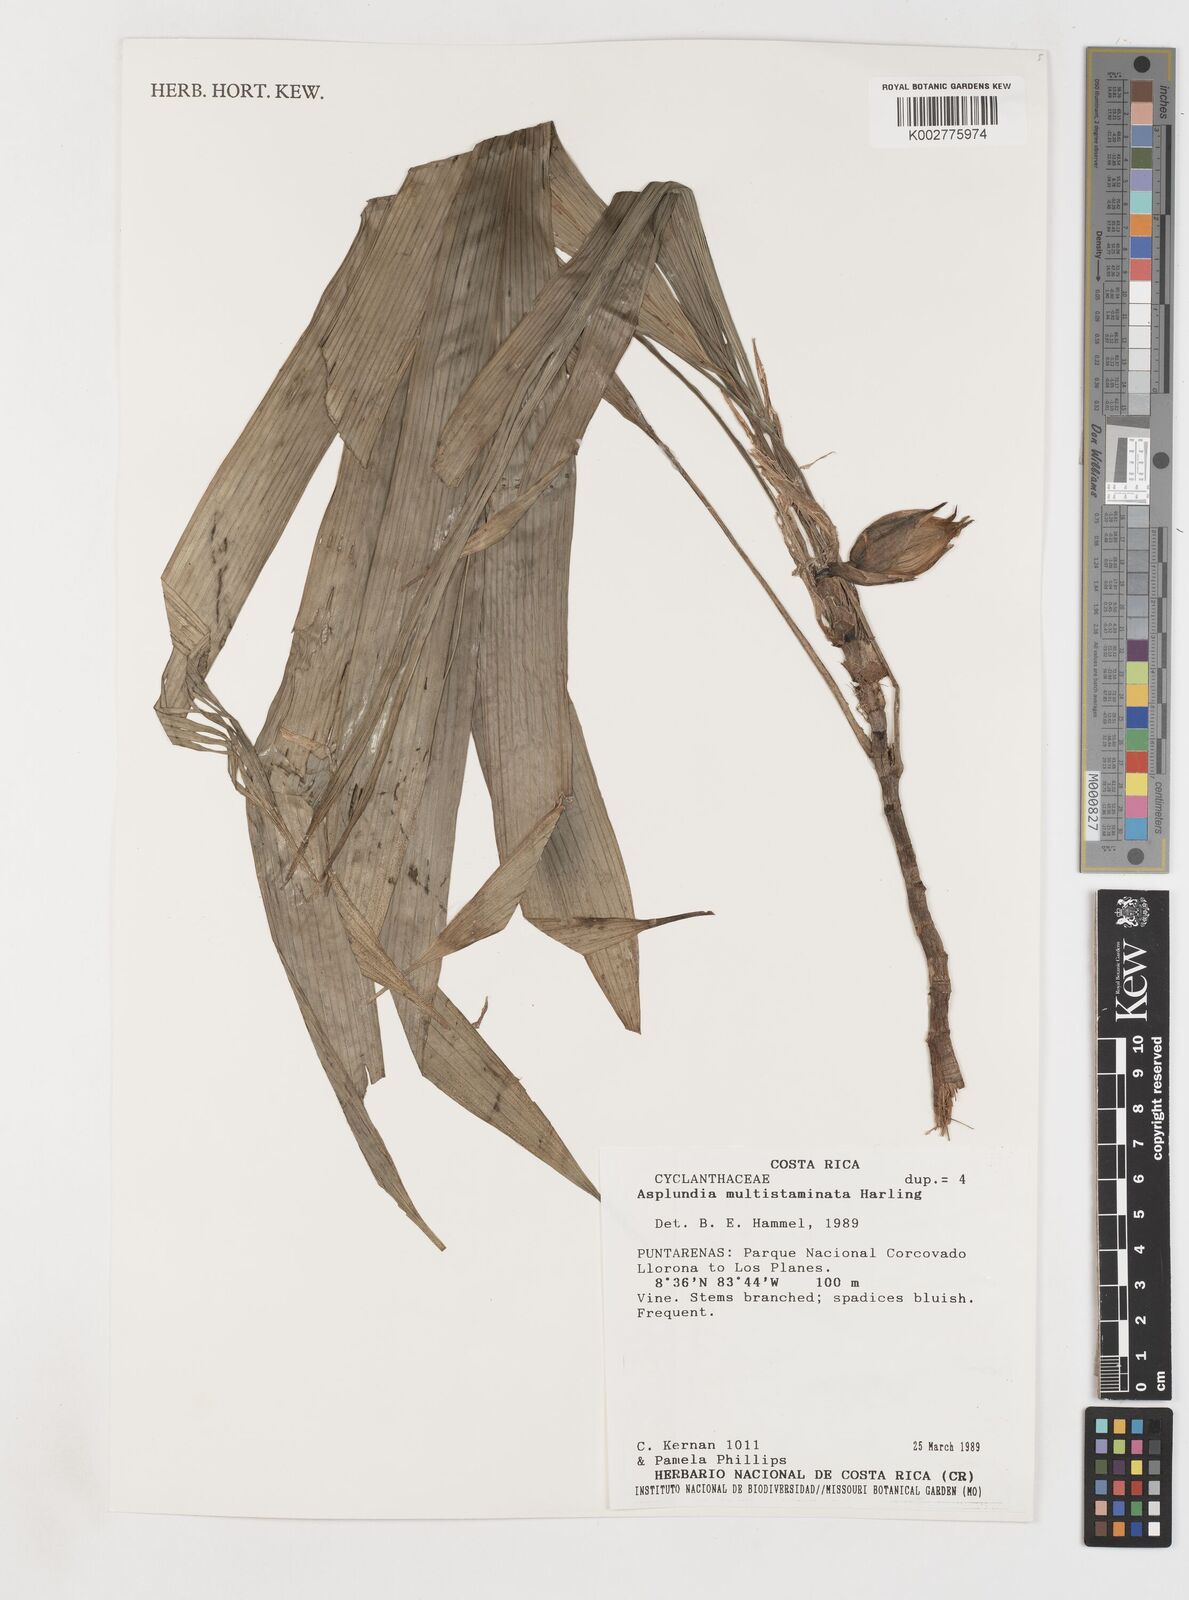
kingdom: Plantae
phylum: Tracheophyta
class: Liliopsida
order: Pandanales
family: Cyclanthaceae
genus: Asplundia
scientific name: Asplundia multistaminata
